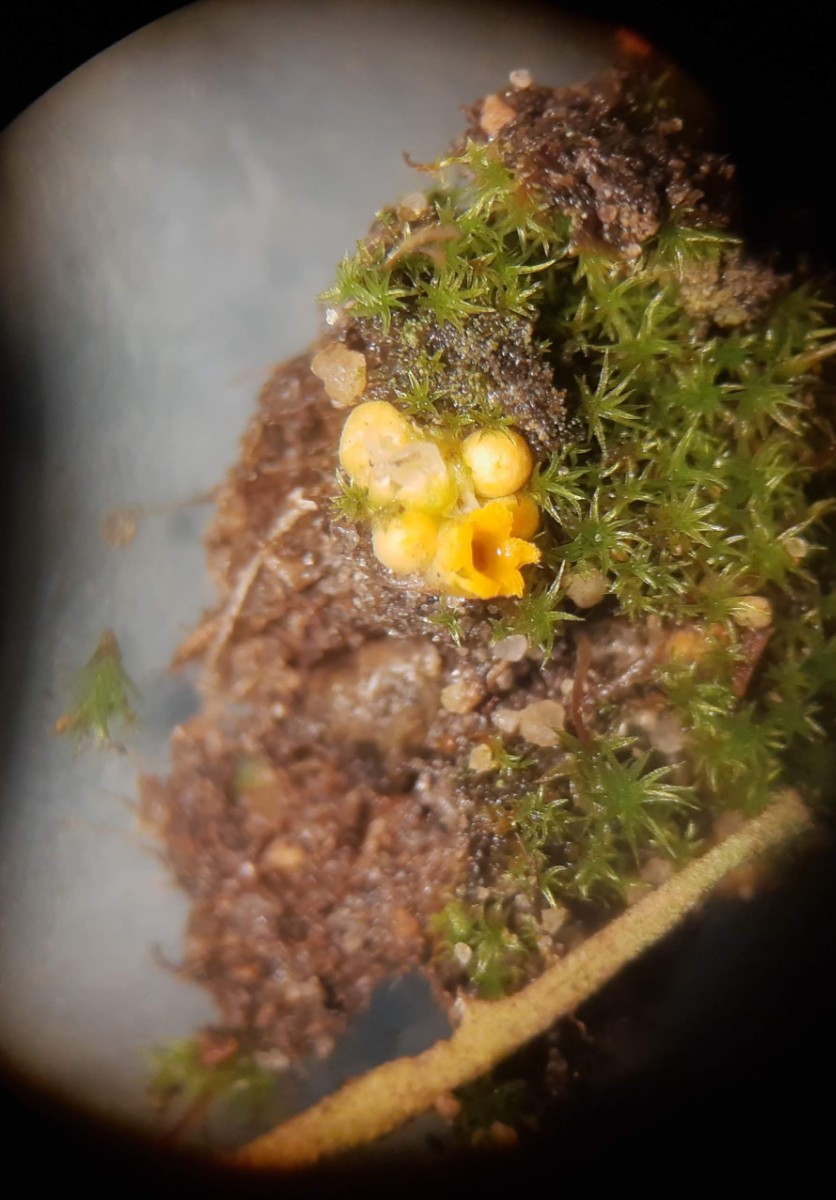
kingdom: Fungi
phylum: Basidiomycota
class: Agaricomycetes
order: Geastrales
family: Geastraceae
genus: Sphaerobolus
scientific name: Sphaerobolus stellatus
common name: bombekaster
